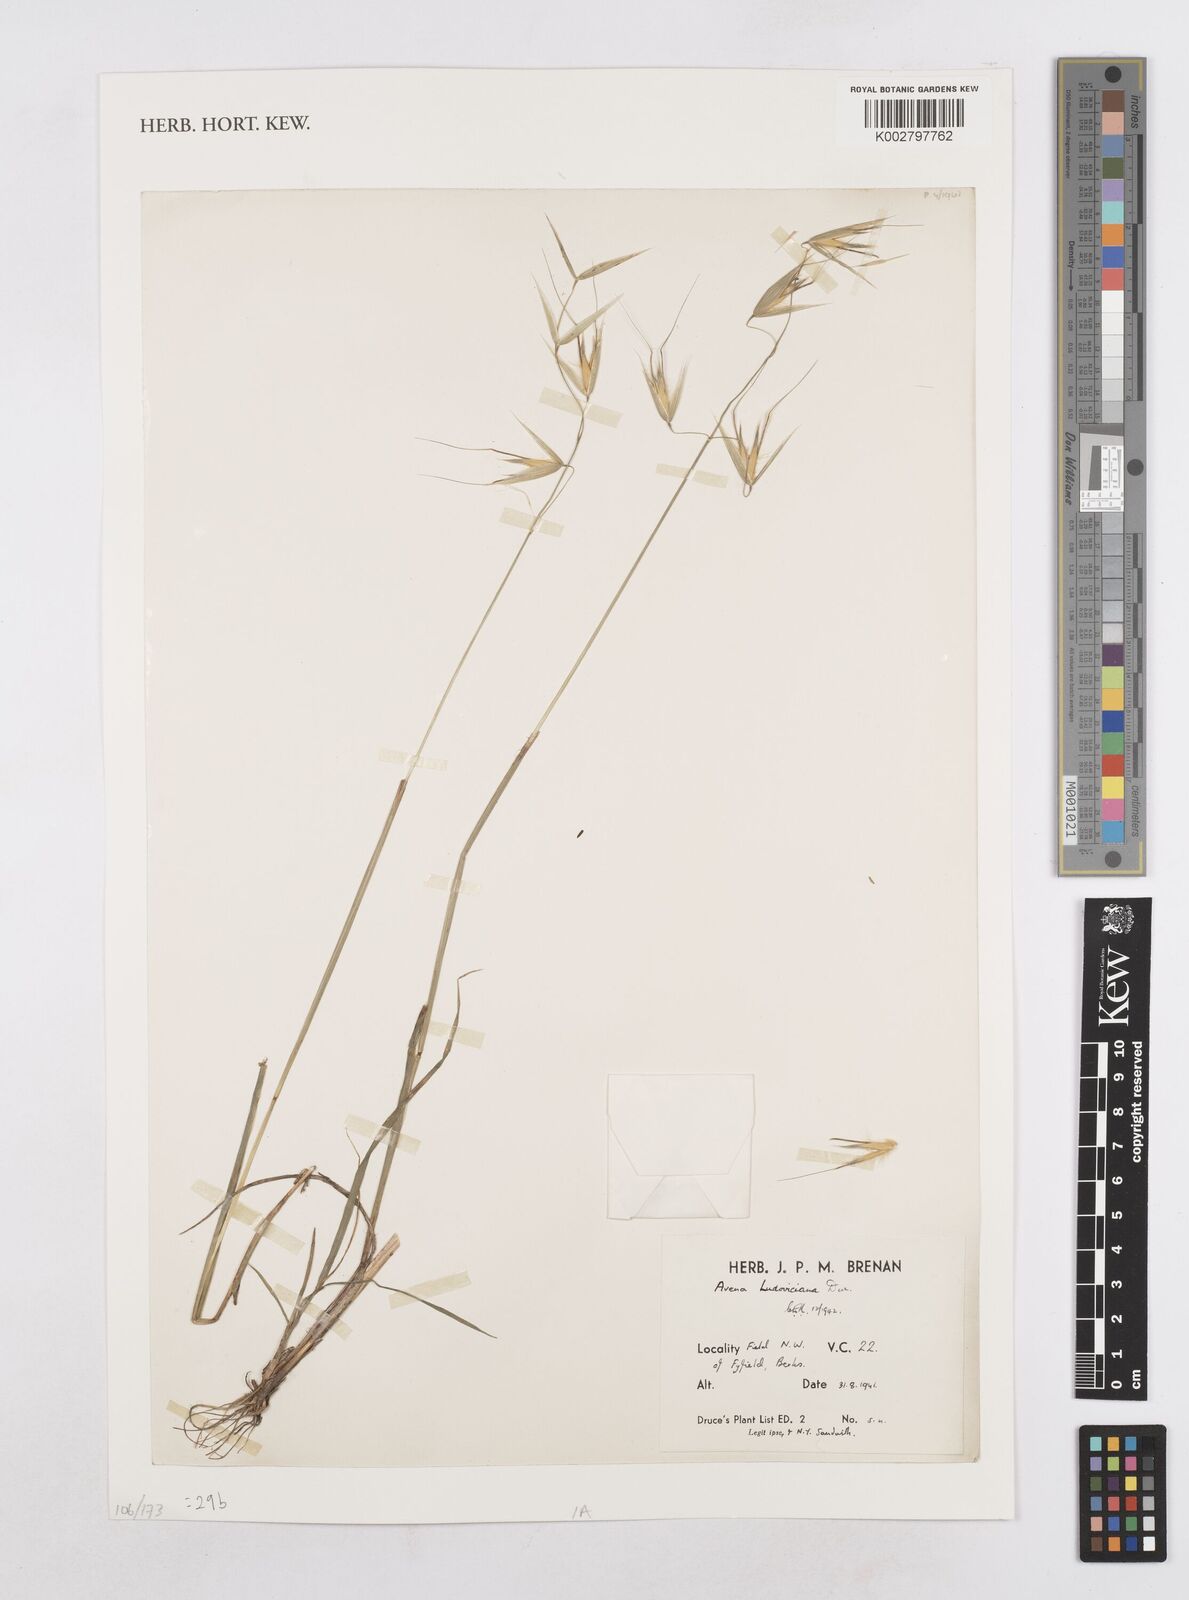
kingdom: Plantae
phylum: Tracheophyta
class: Liliopsida
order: Poales
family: Poaceae
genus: Avena
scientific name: Avena sterilis
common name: Animated oat
